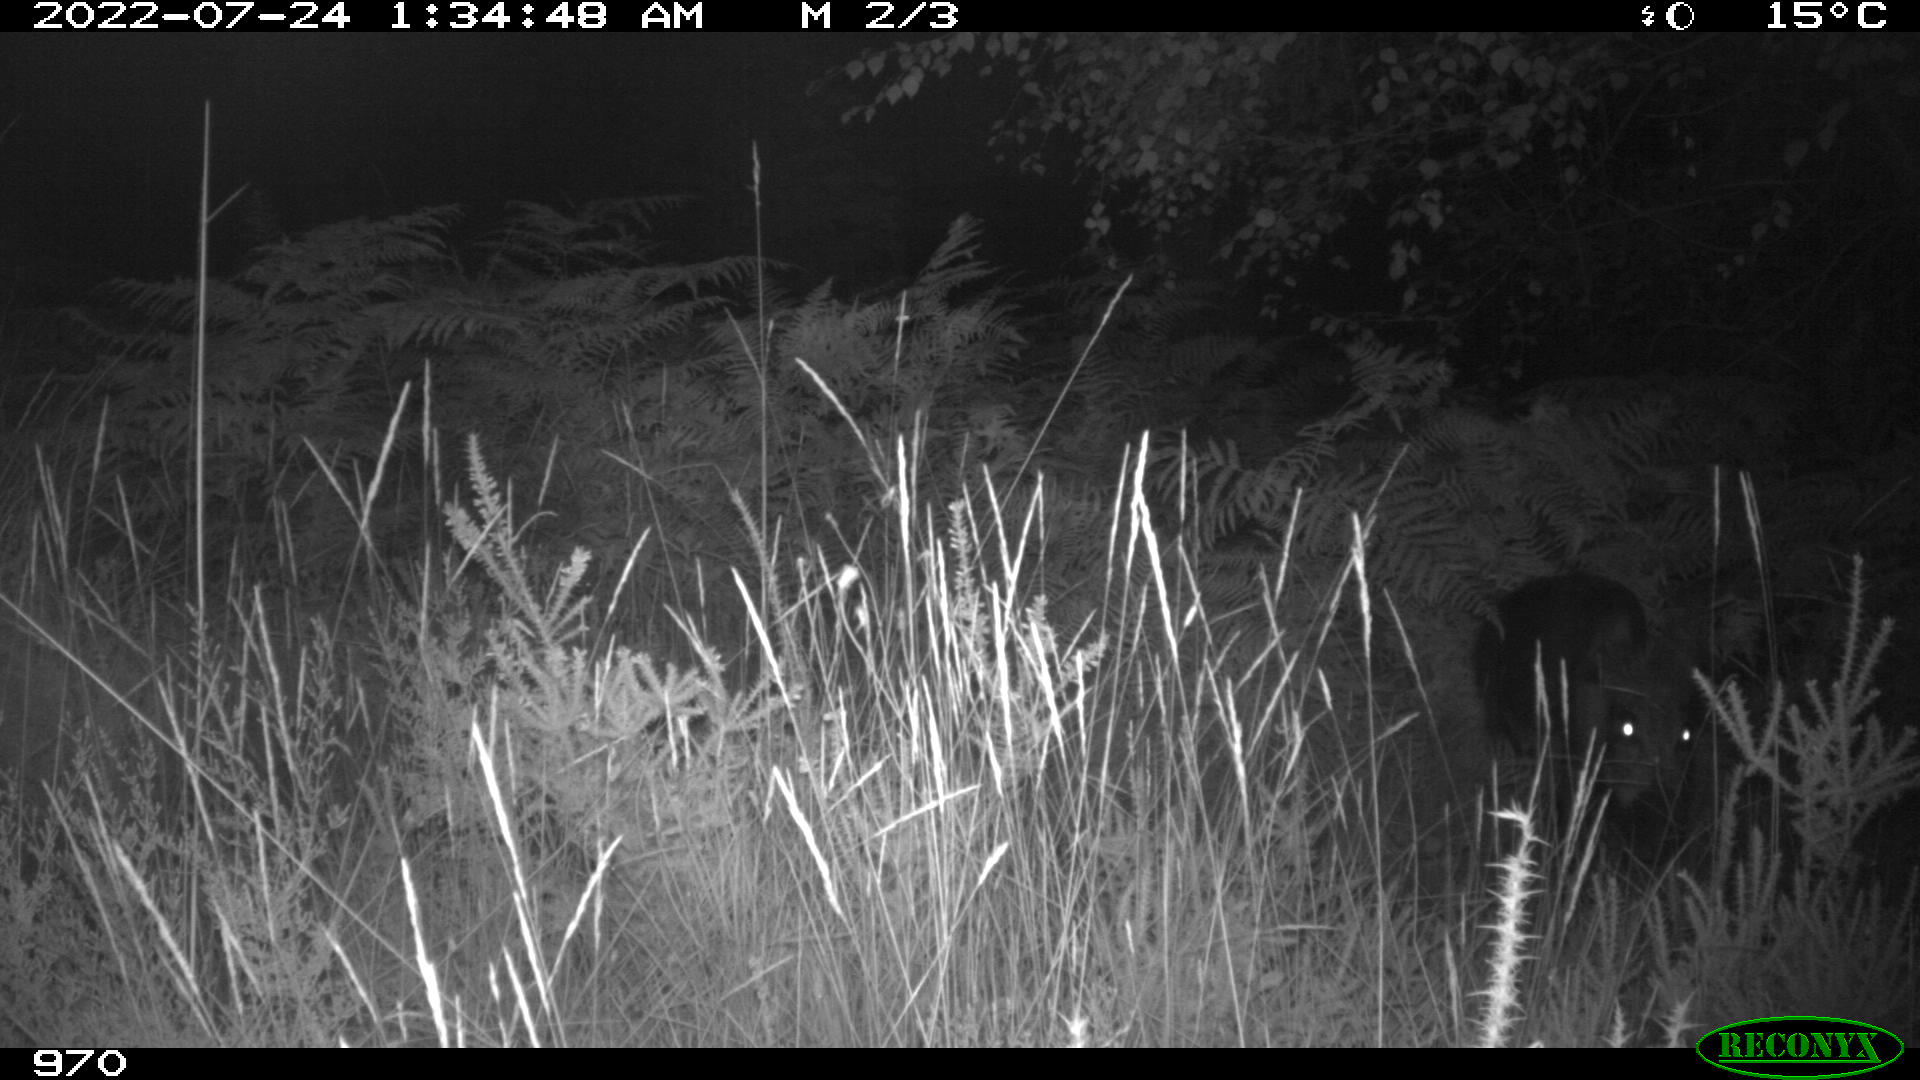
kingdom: Animalia
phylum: Chordata
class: Mammalia
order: Artiodactyla
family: Suidae
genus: Sus
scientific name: Sus scrofa
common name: Wild boar
